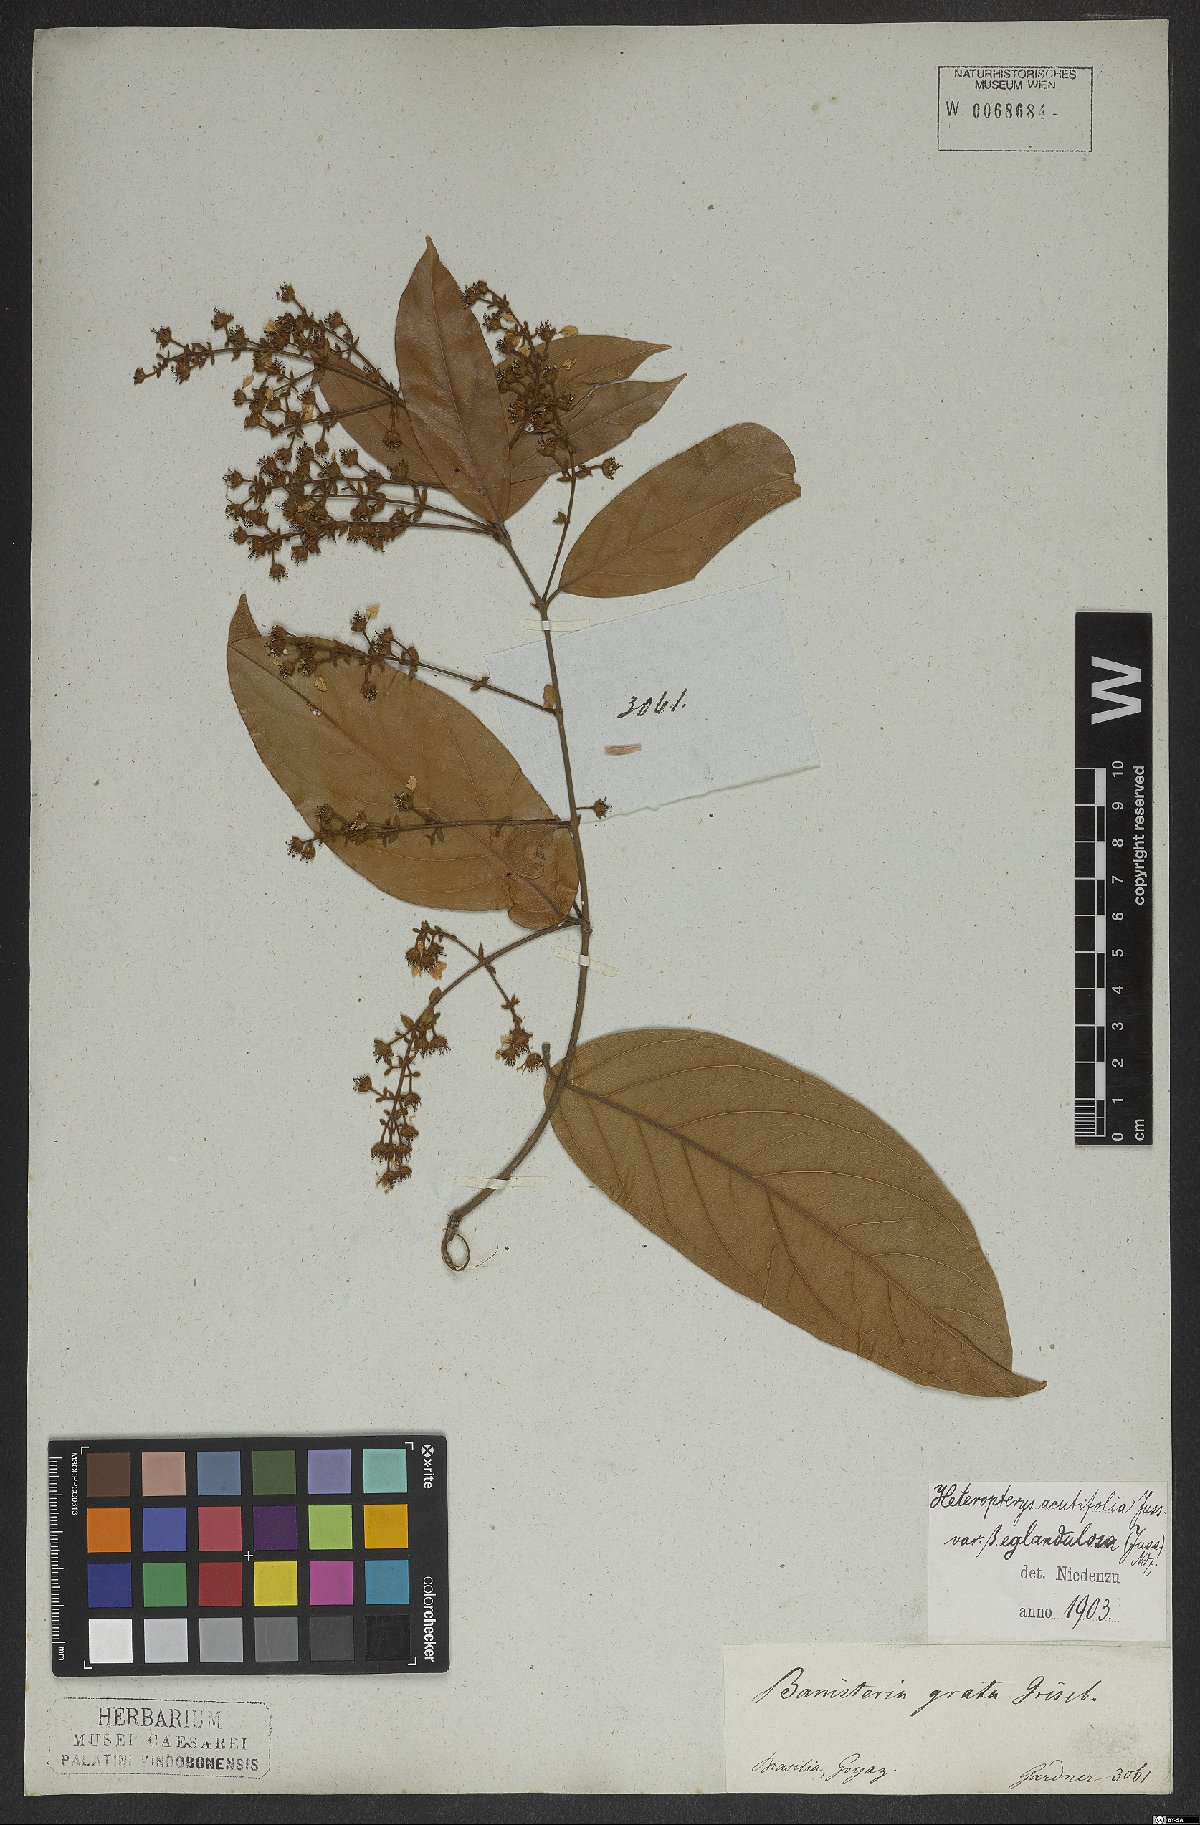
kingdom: Plantae
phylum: Tracheophyta
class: Magnoliopsida
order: Malpighiales
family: Malpighiaceae
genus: Heteropterys
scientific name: Heteropterys orinocensis
